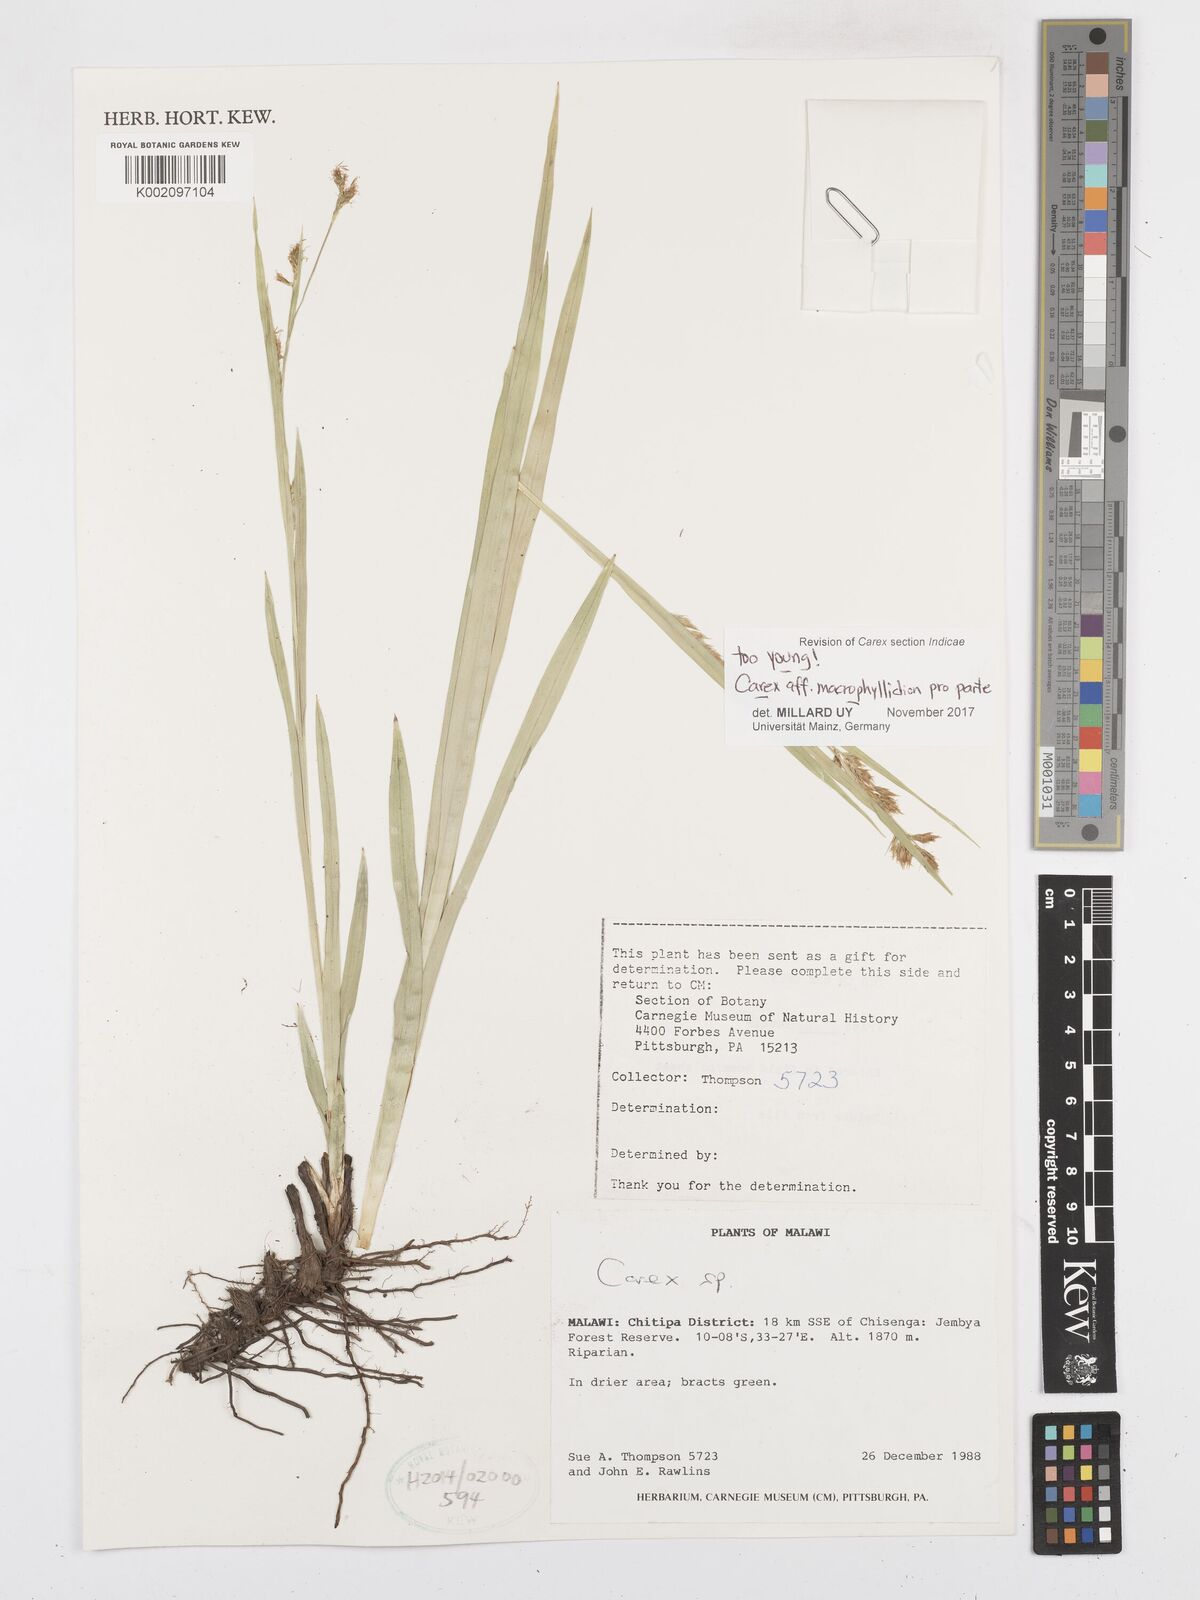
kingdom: Plantae
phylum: Tracheophyta
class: Liliopsida
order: Poales
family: Cyperaceae
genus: Carex
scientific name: Carex macrophyllidion
